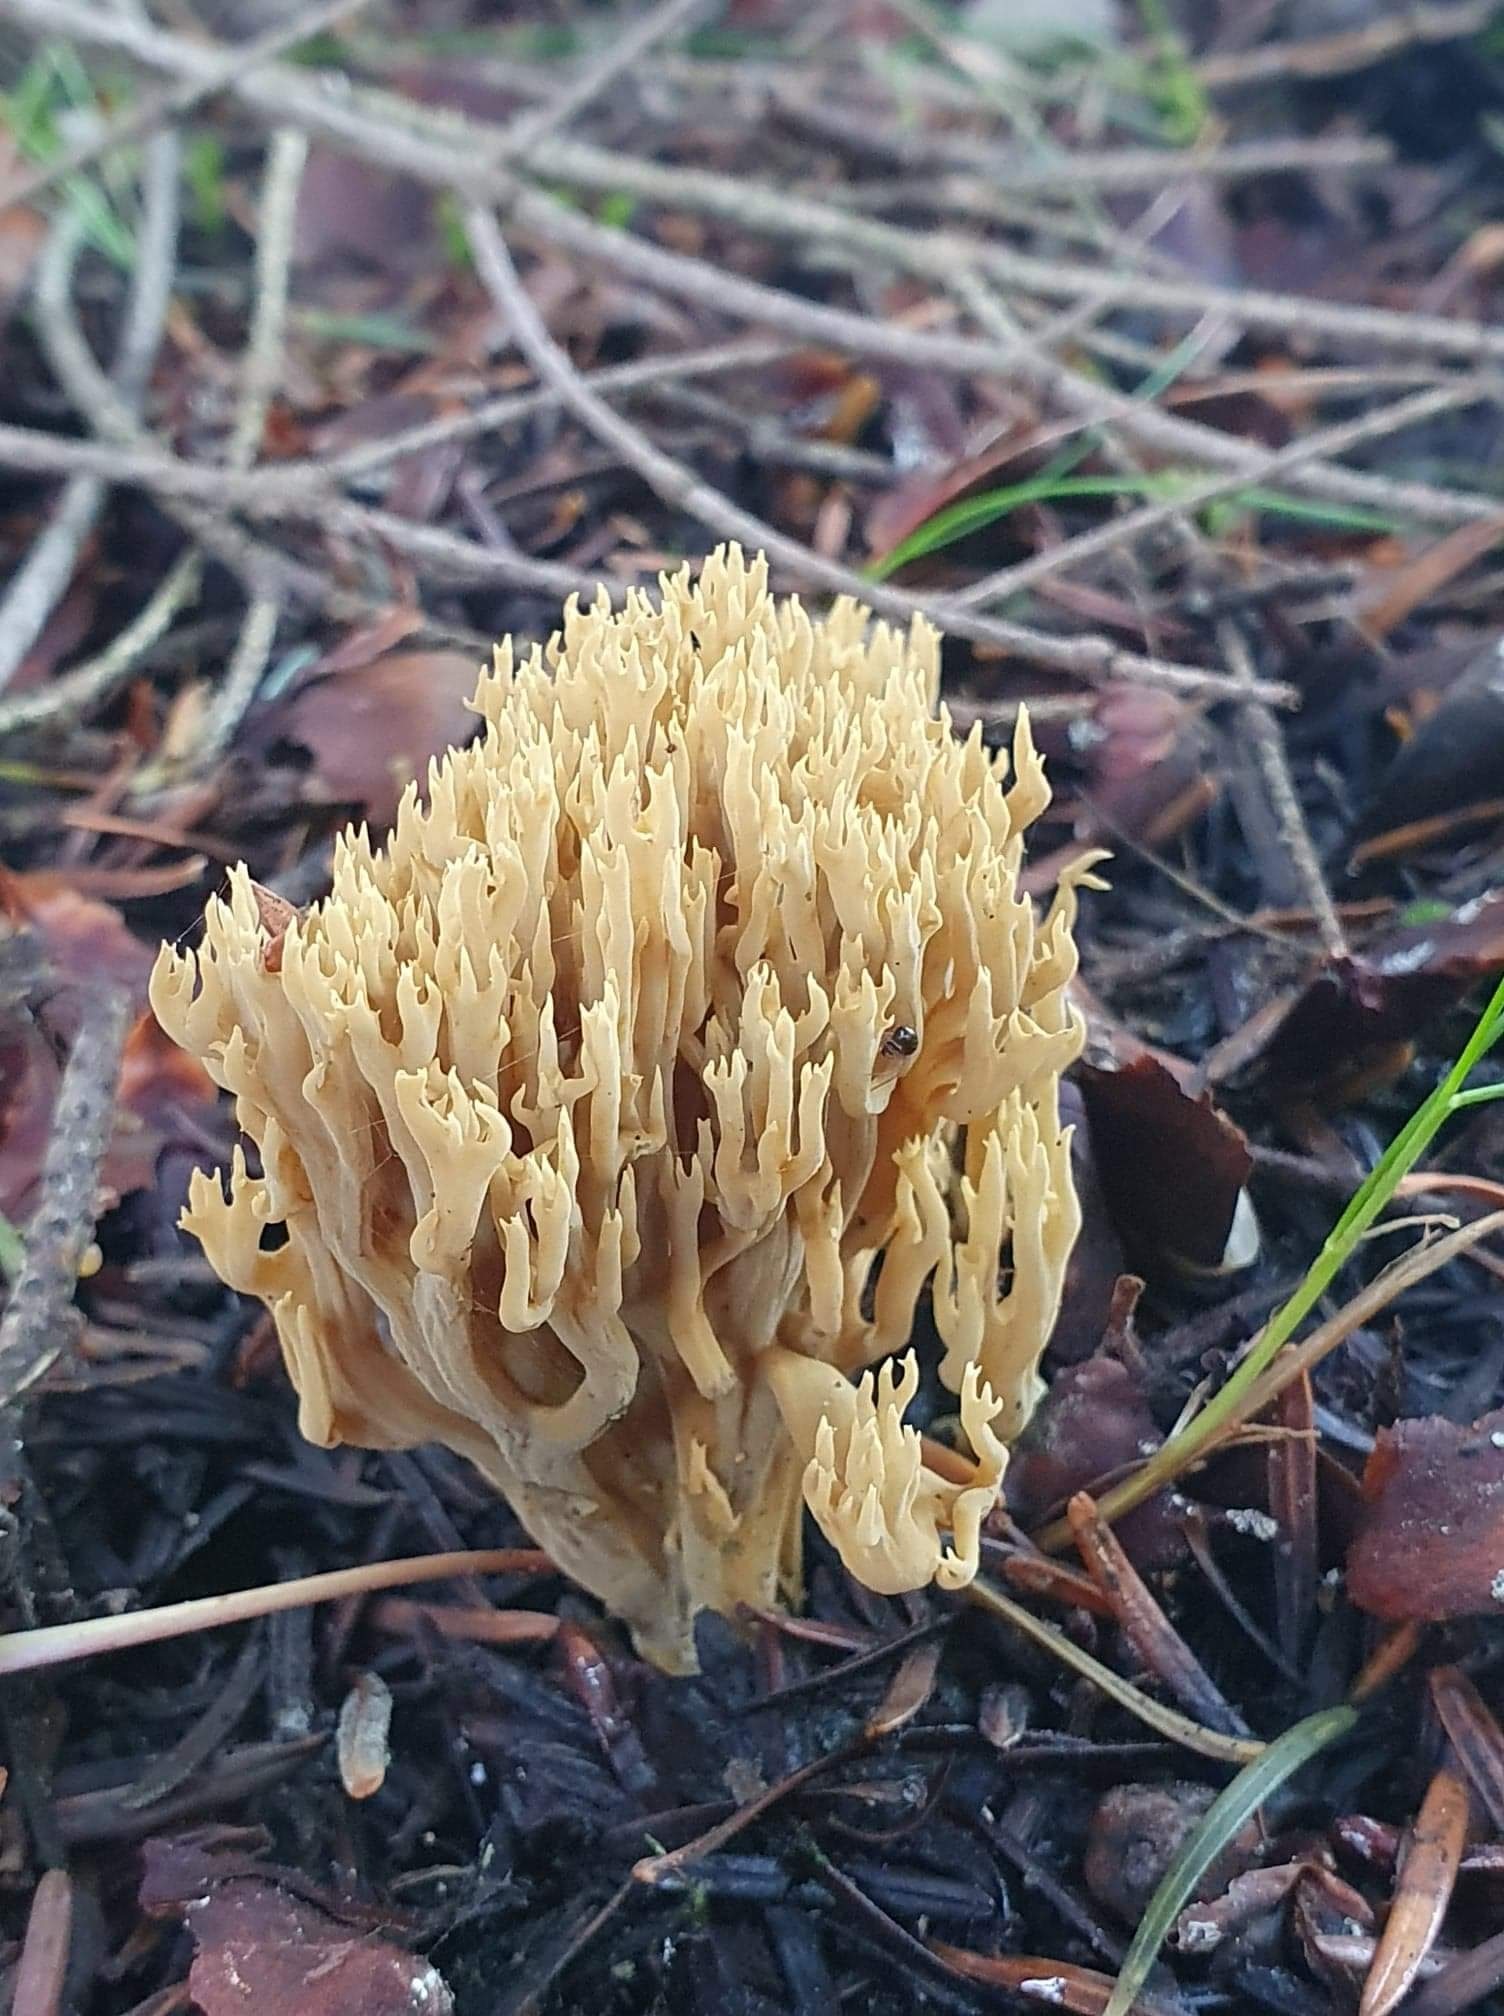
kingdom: Fungi
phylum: Basidiomycota
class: Agaricomycetes
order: Gomphales
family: Gomphaceae
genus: Ramaria
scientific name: Ramaria stricta
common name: rank koralsvamp
